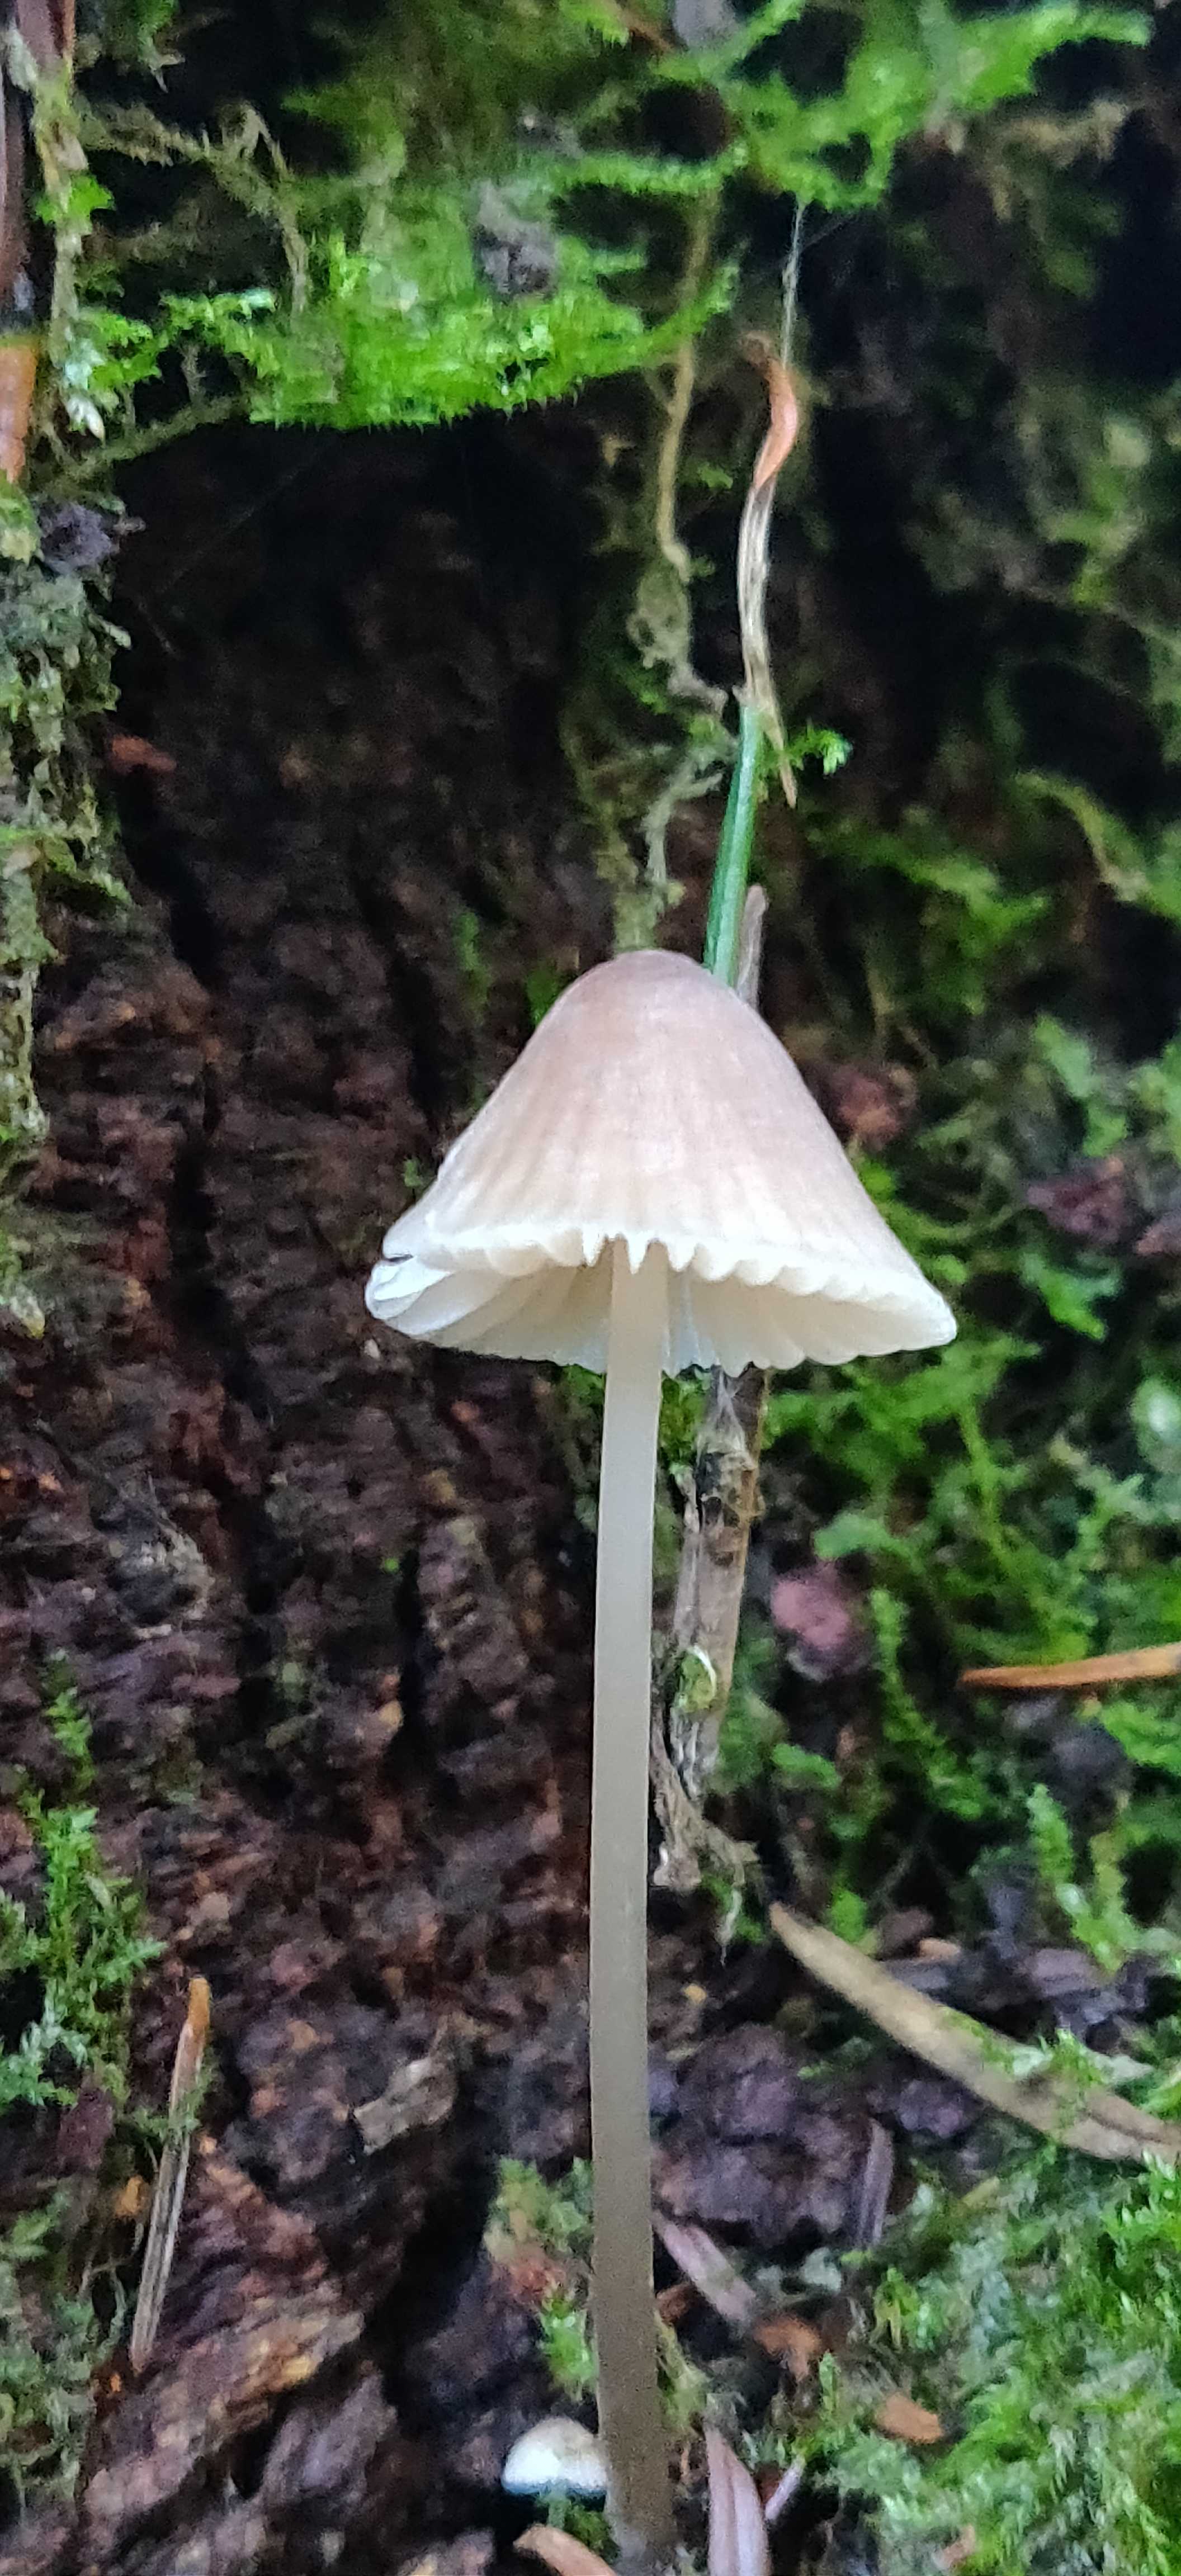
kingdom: Fungi
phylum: Basidiomycota
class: Agaricomycetes
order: Agaricales
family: Mycenaceae
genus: Mycena
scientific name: Mycena
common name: huesvamp
